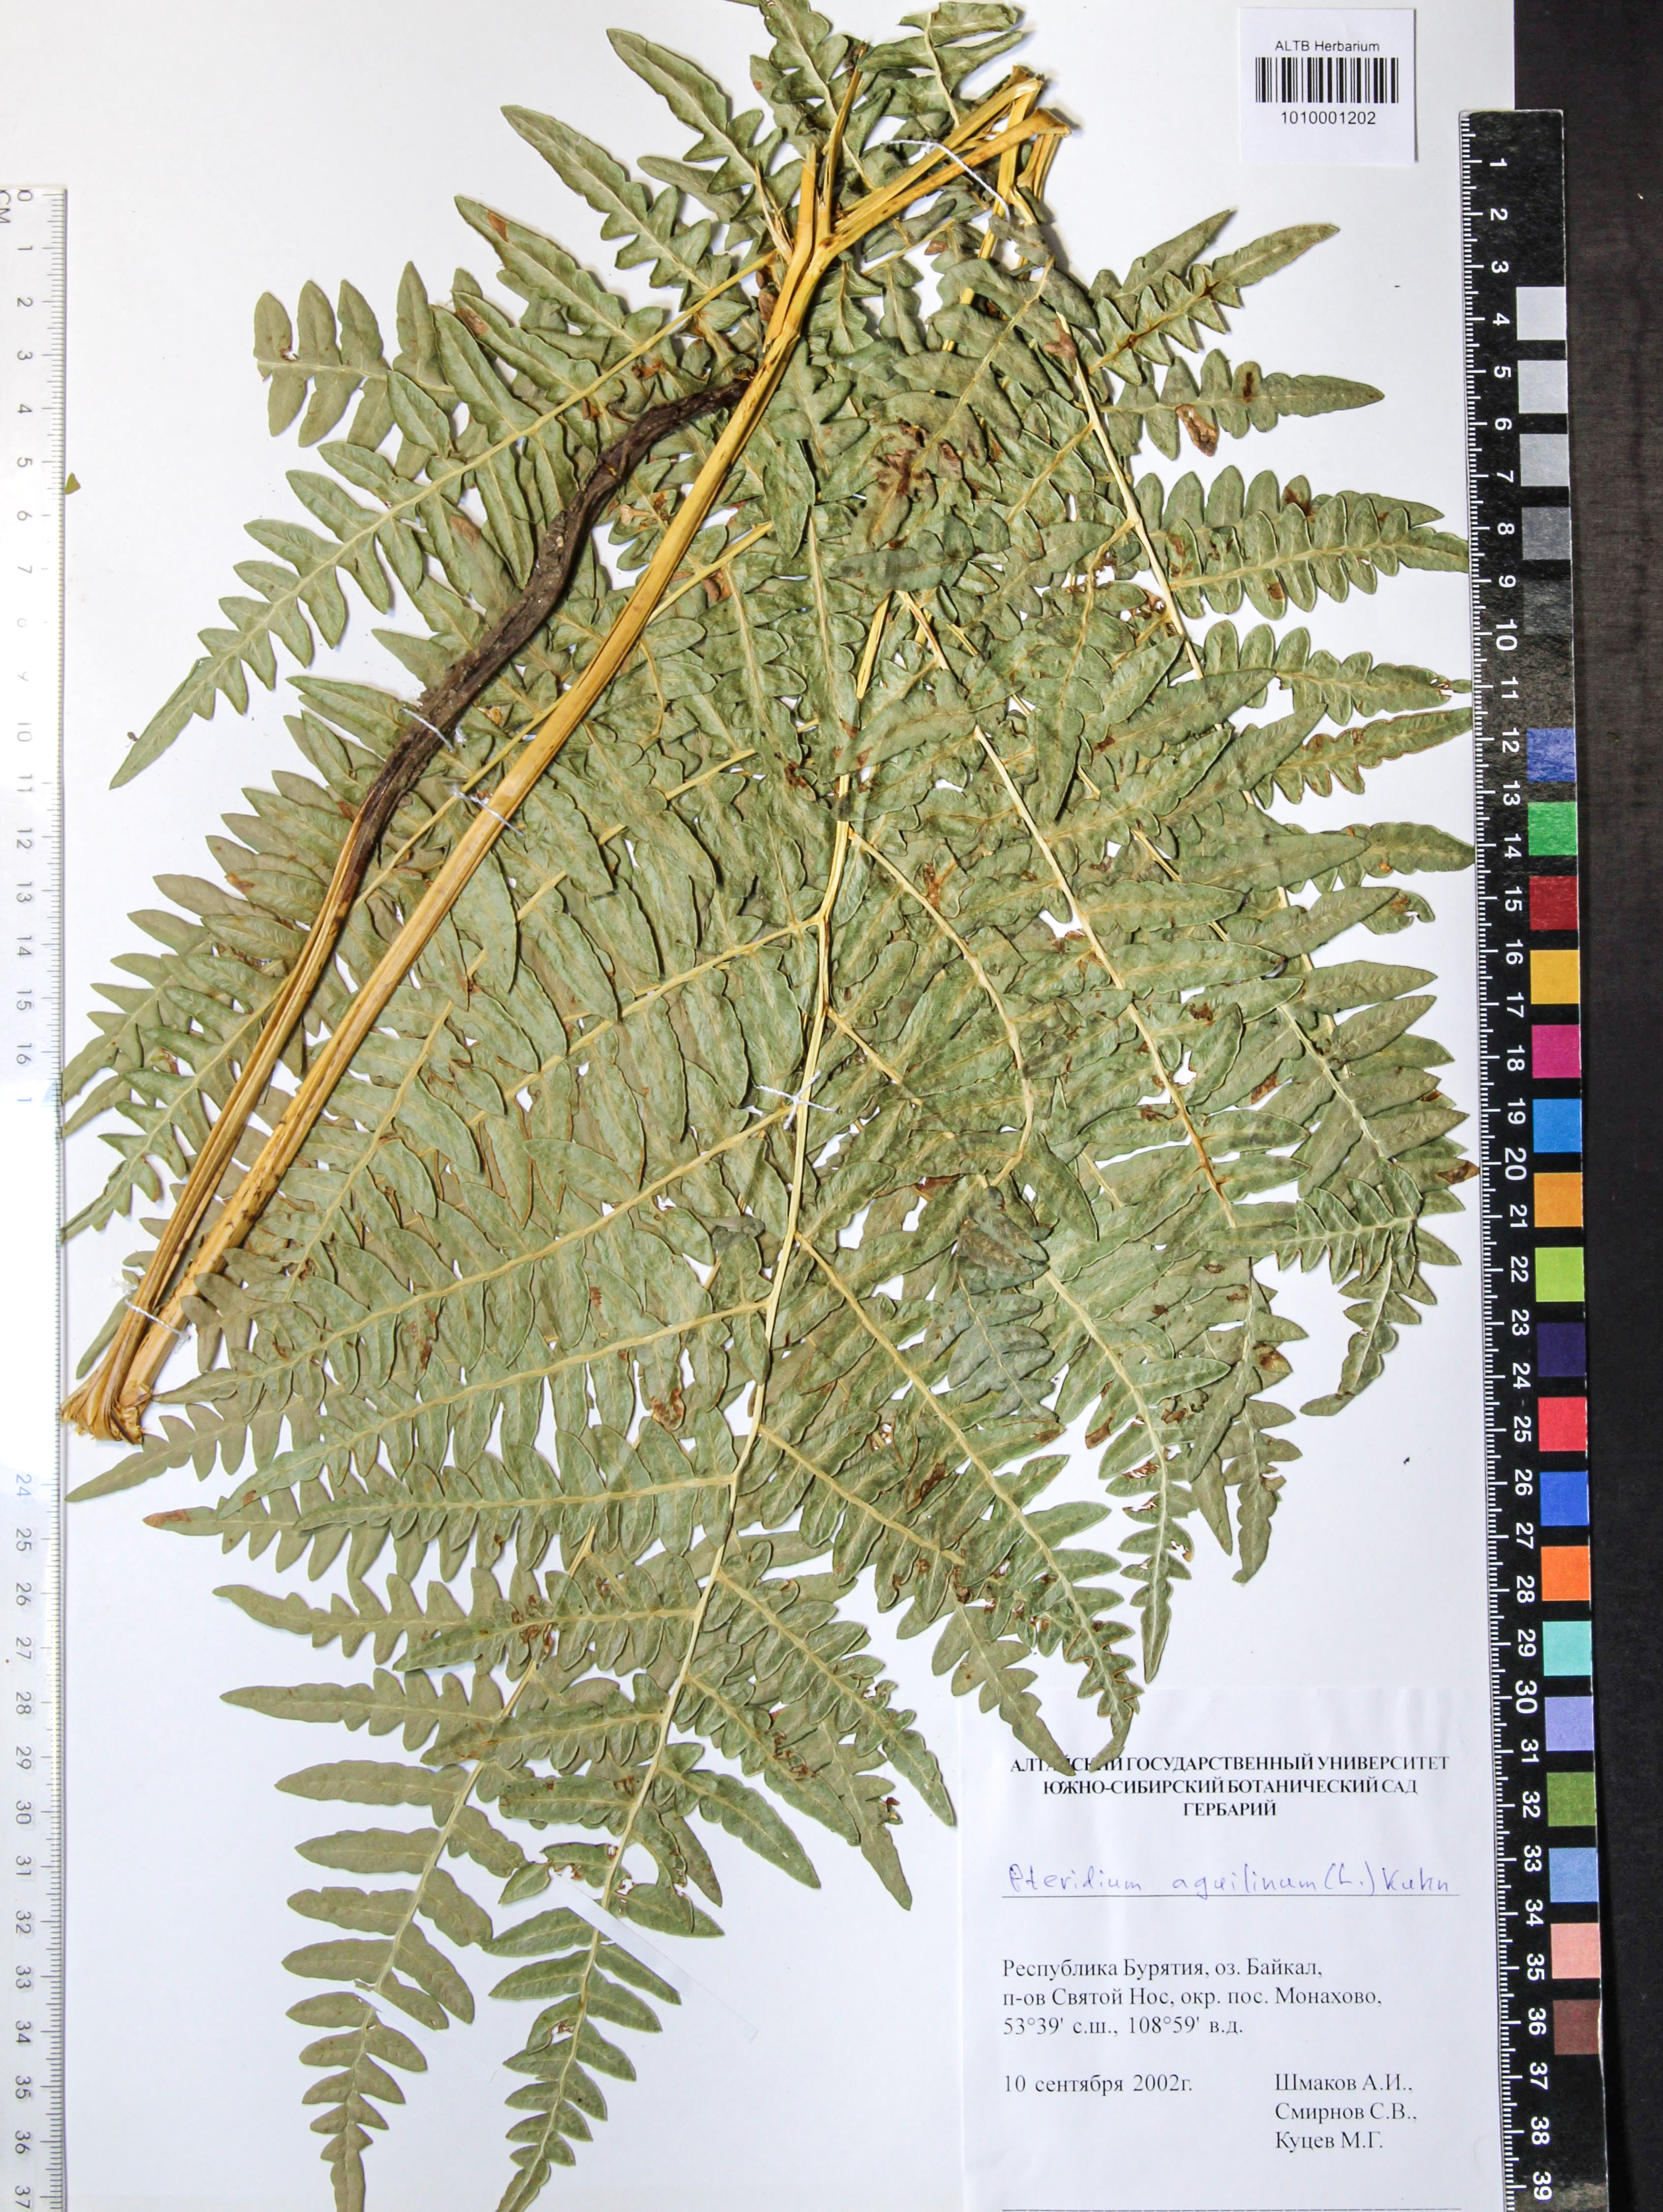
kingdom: Plantae
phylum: Tracheophyta
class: Polypodiopsida
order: Polypodiales
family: Dennstaedtiaceae
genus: Pteridium
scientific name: Pteridium aquilinum
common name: Bracken
